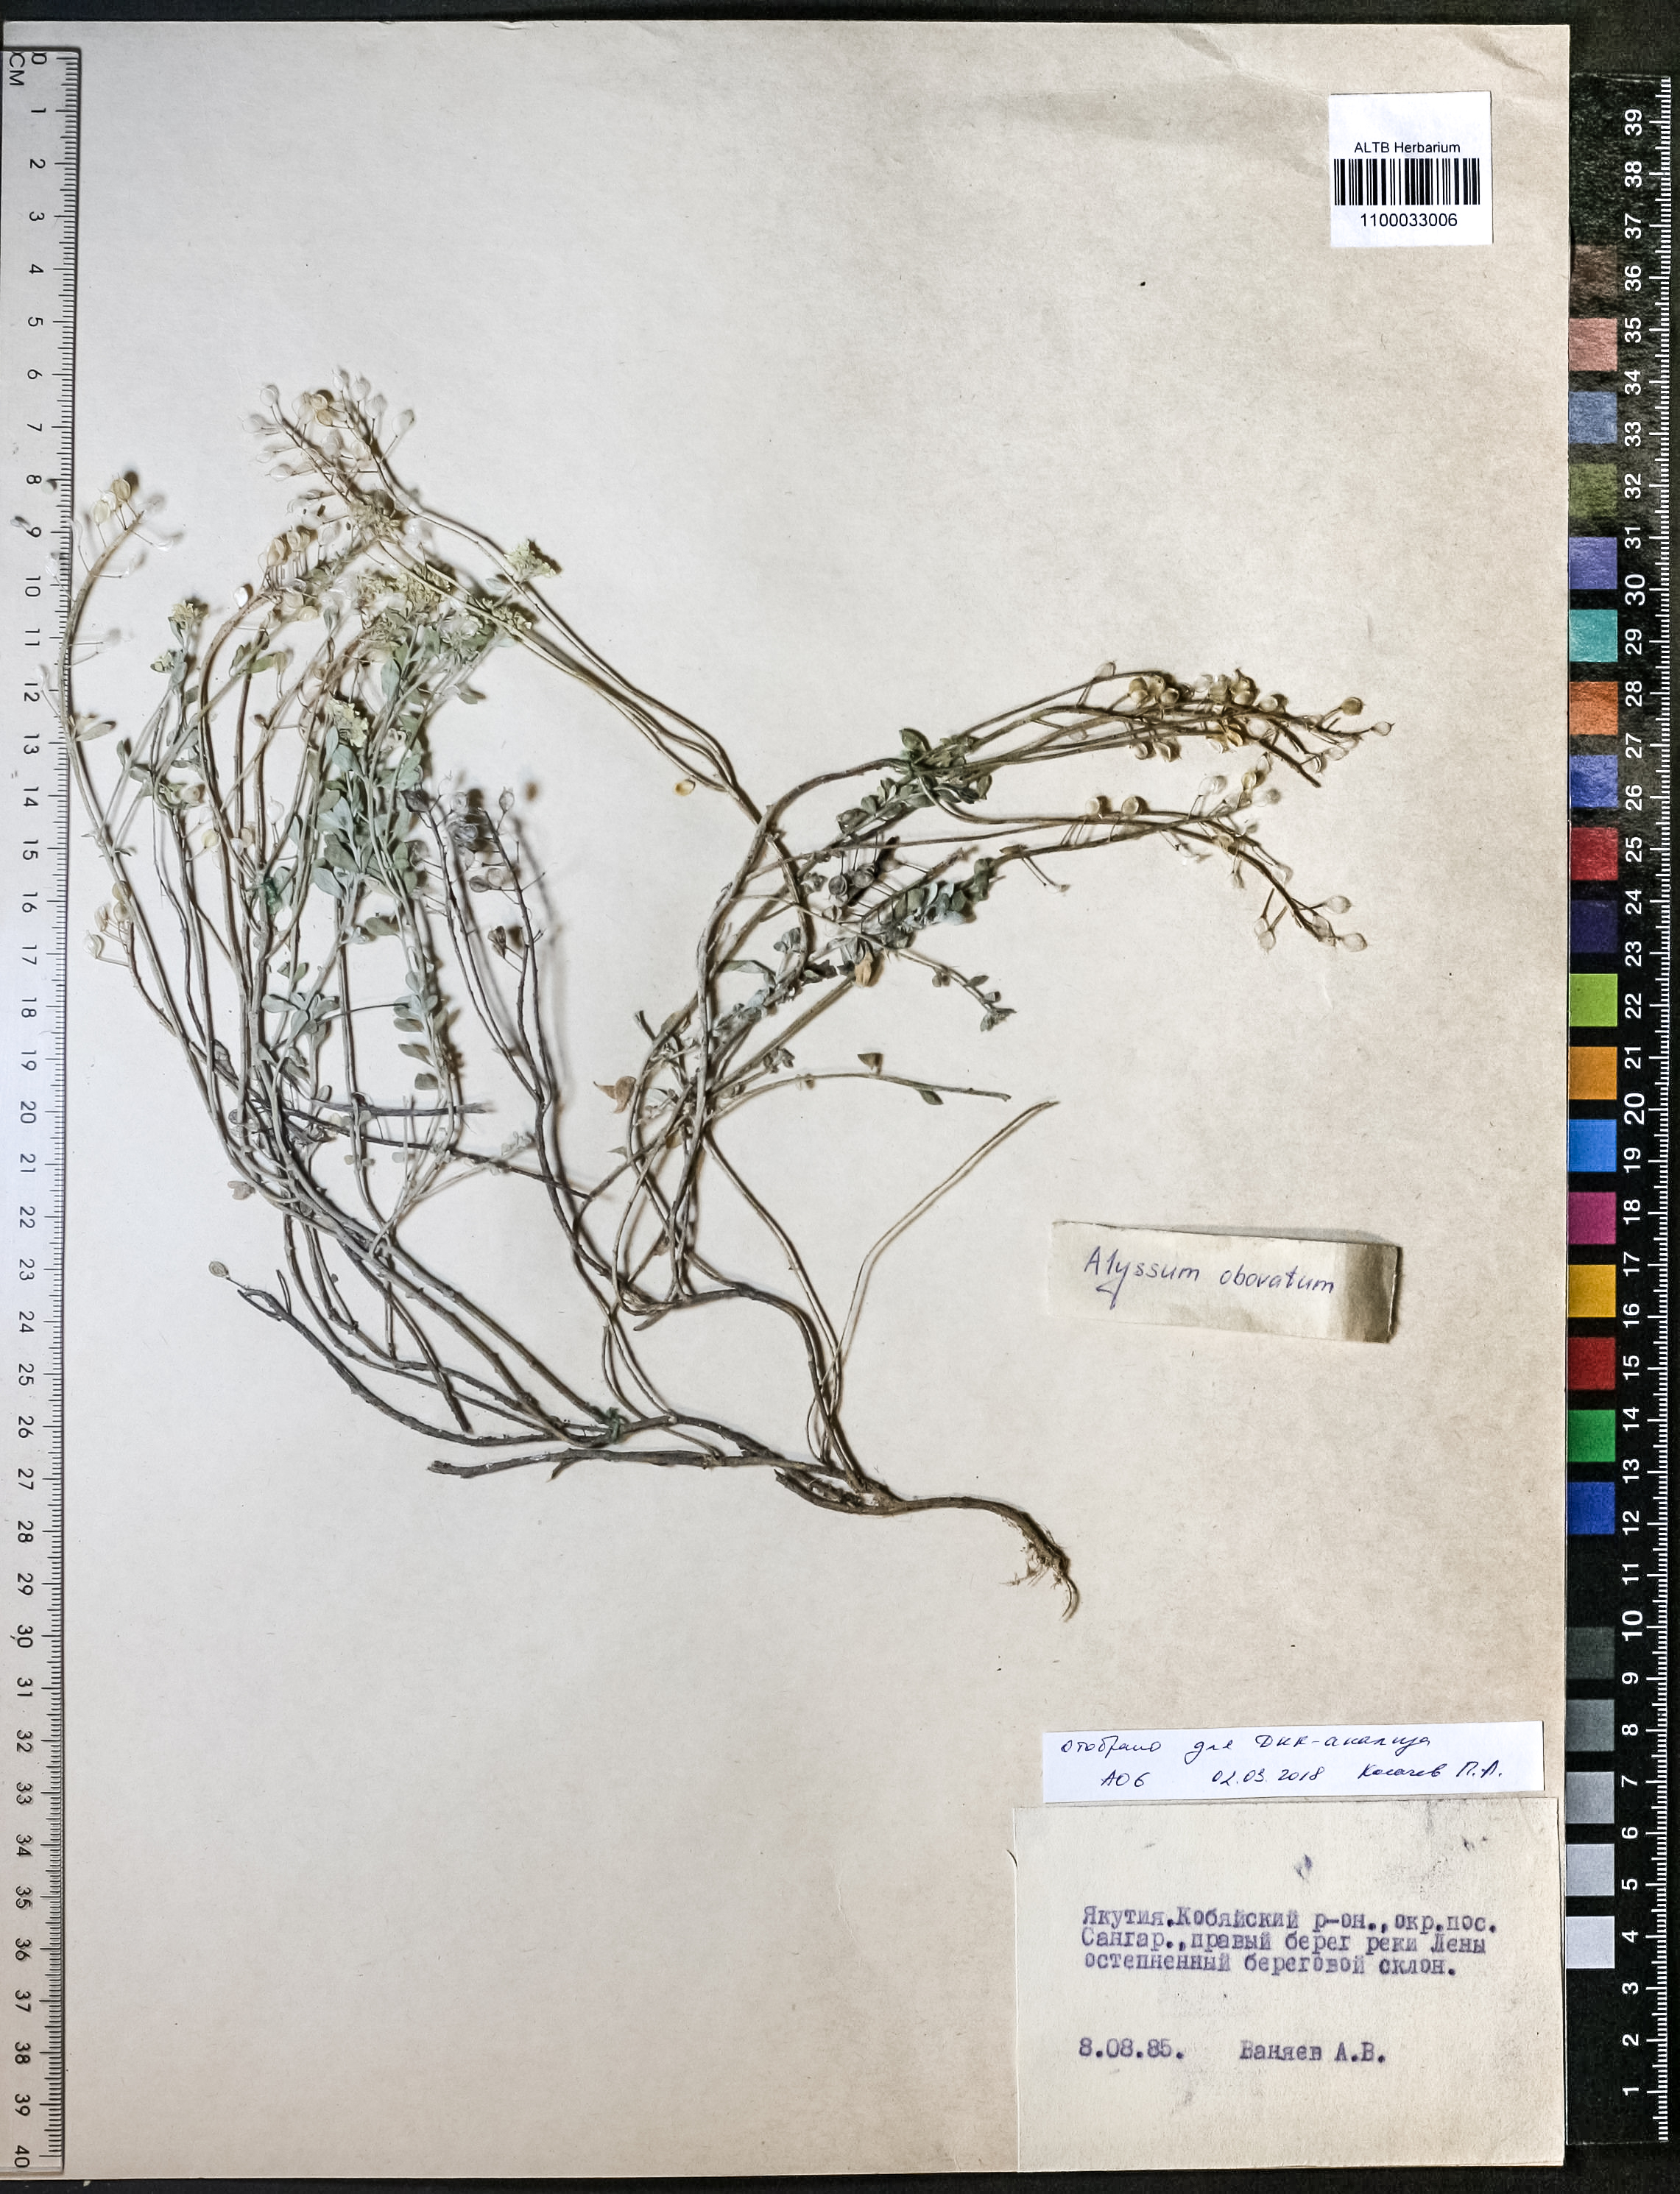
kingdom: Plantae
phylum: Tracheophyta
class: Magnoliopsida
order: Brassicales
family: Brassicaceae
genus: Odontarrhena
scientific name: Odontarrhena obovata
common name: American alyssum
